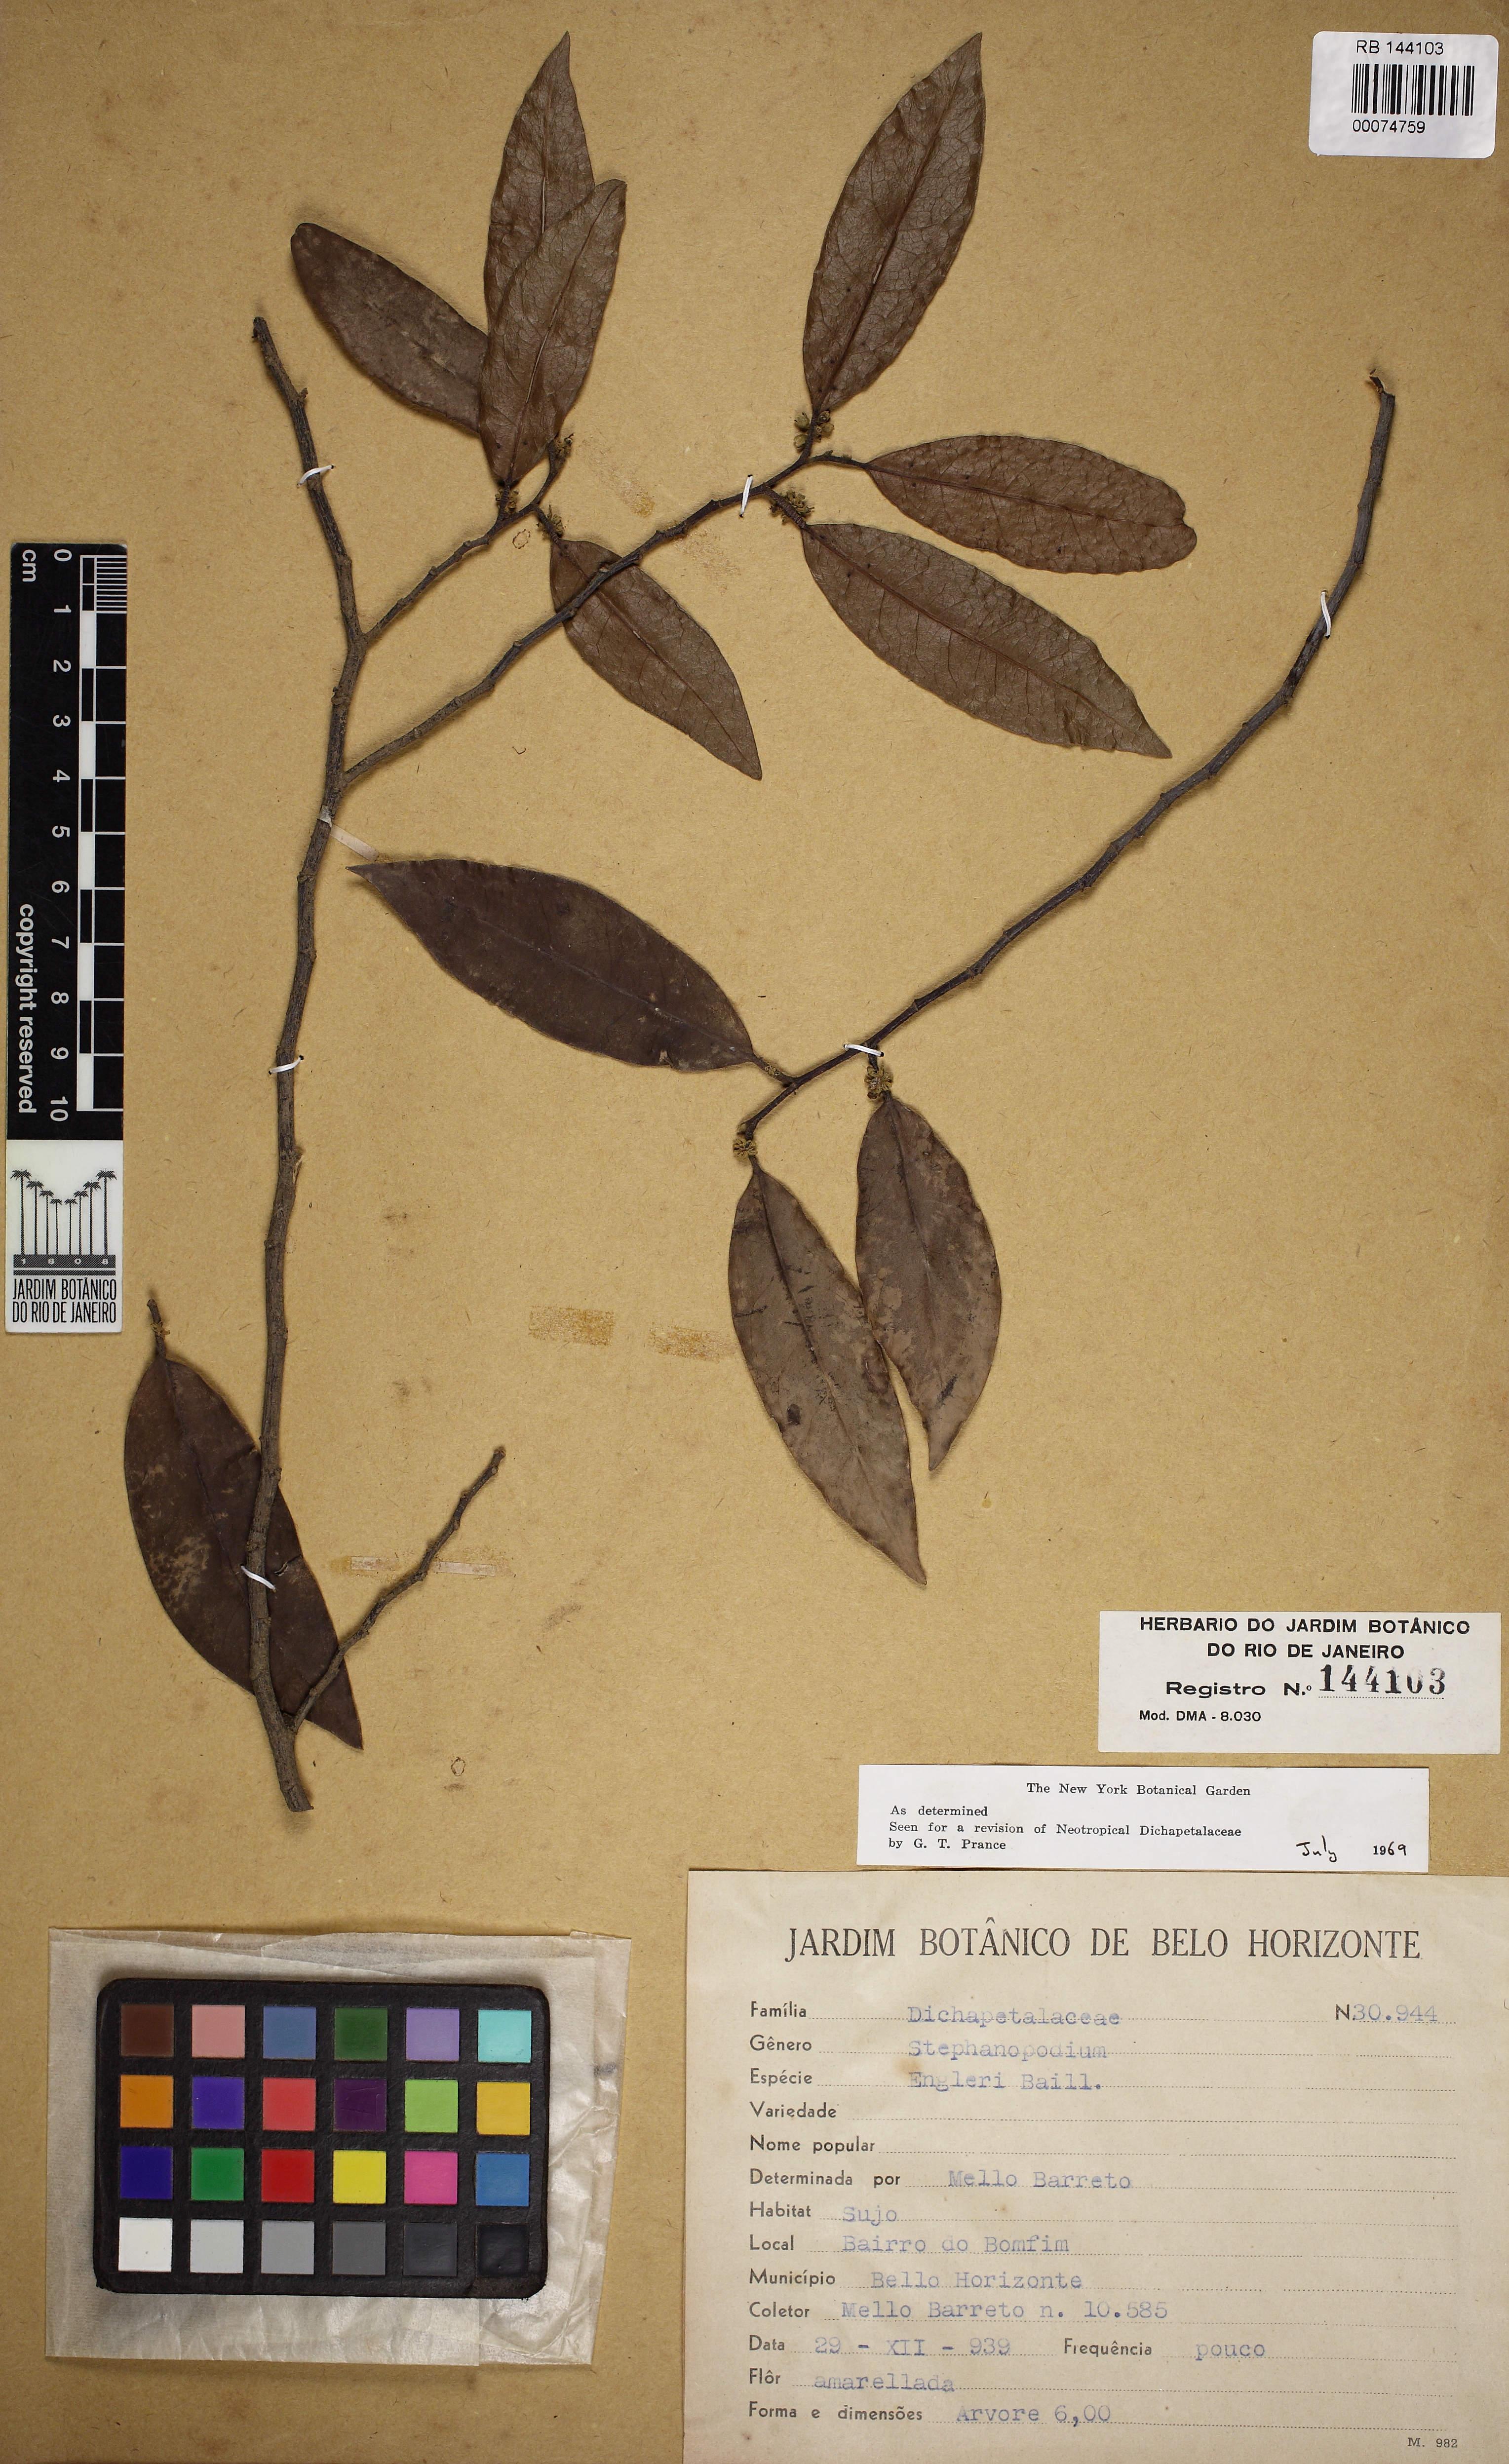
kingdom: Plantae
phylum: Tracheophyta
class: Magnoliopsida
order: Malpighiales
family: Dichapetalaceae
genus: Stephanopodium
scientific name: Stephanopodium engleri
